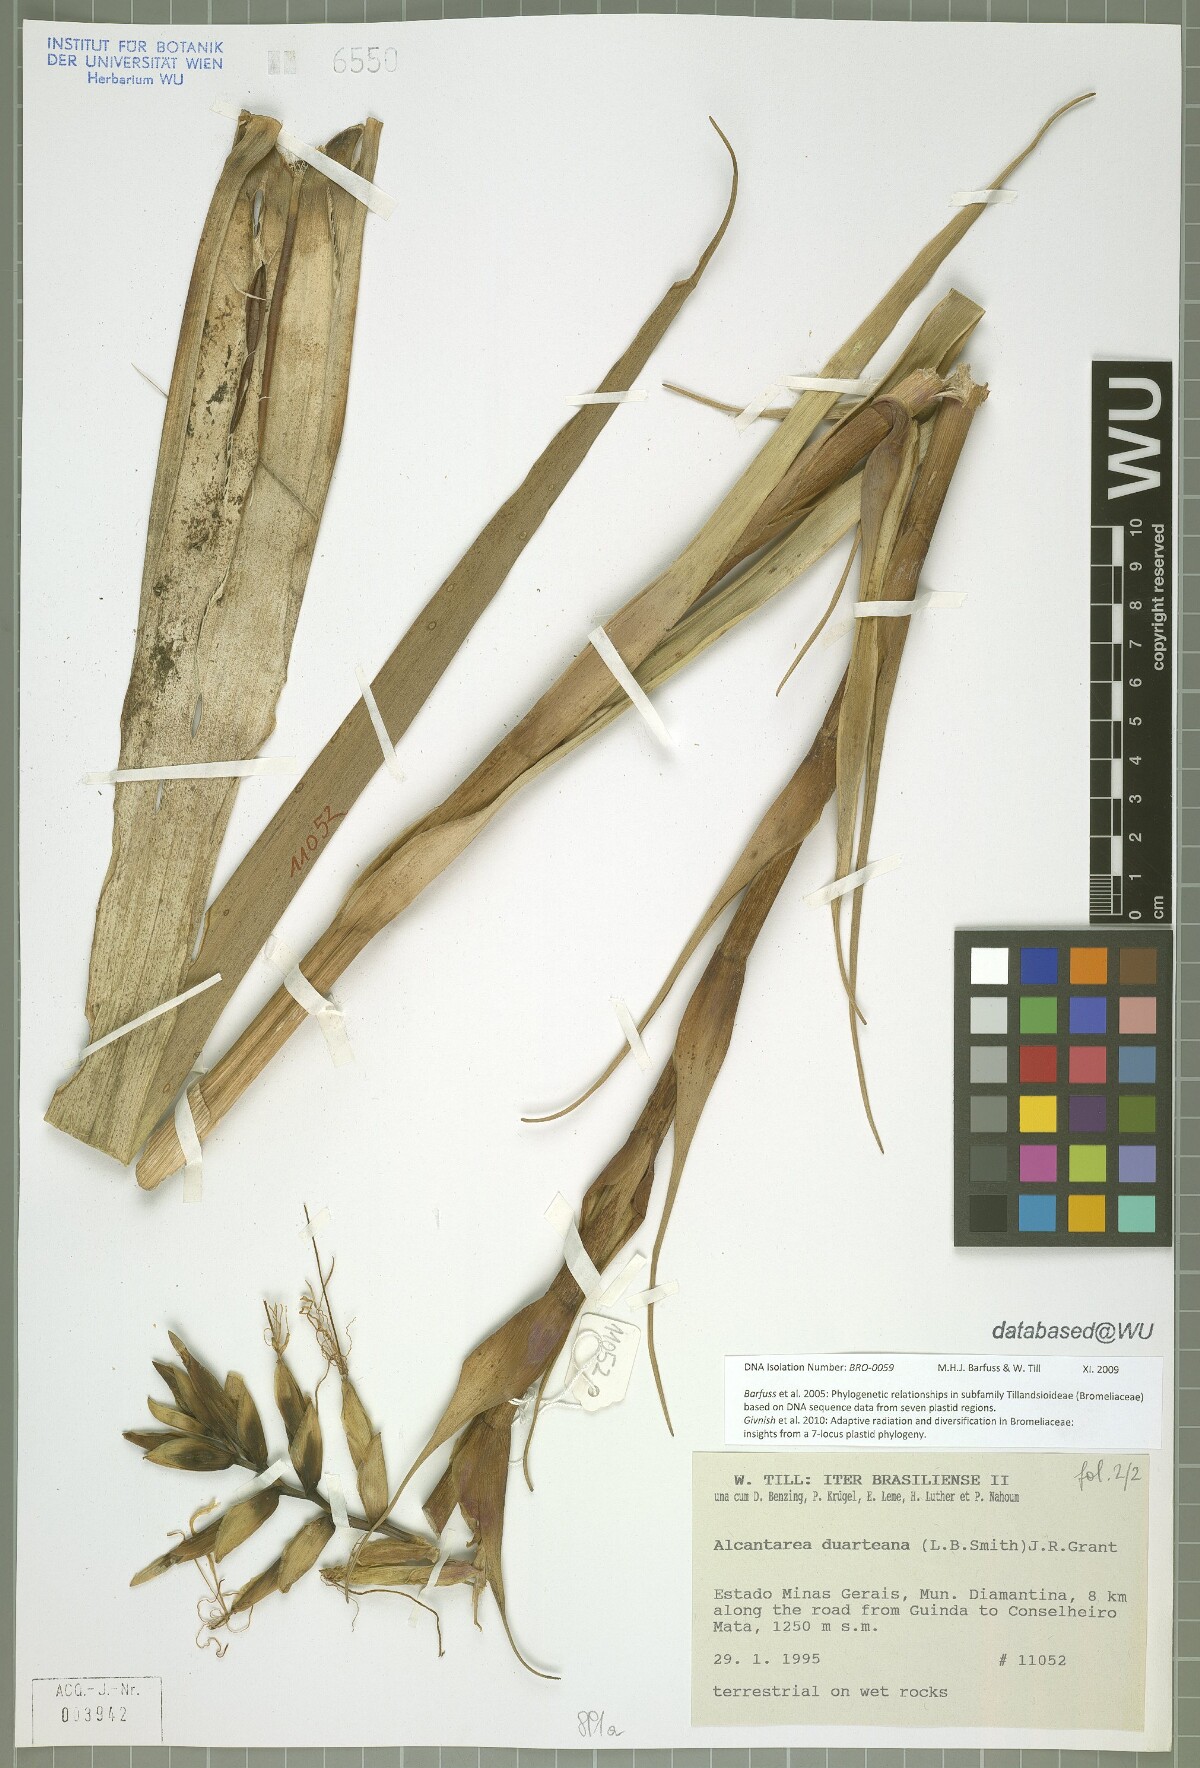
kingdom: Plantae
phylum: Tracheophyta
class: Liliopsida
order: Poales
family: Bromeliaceae
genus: Alcantarea
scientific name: Alcantarea duarteana
